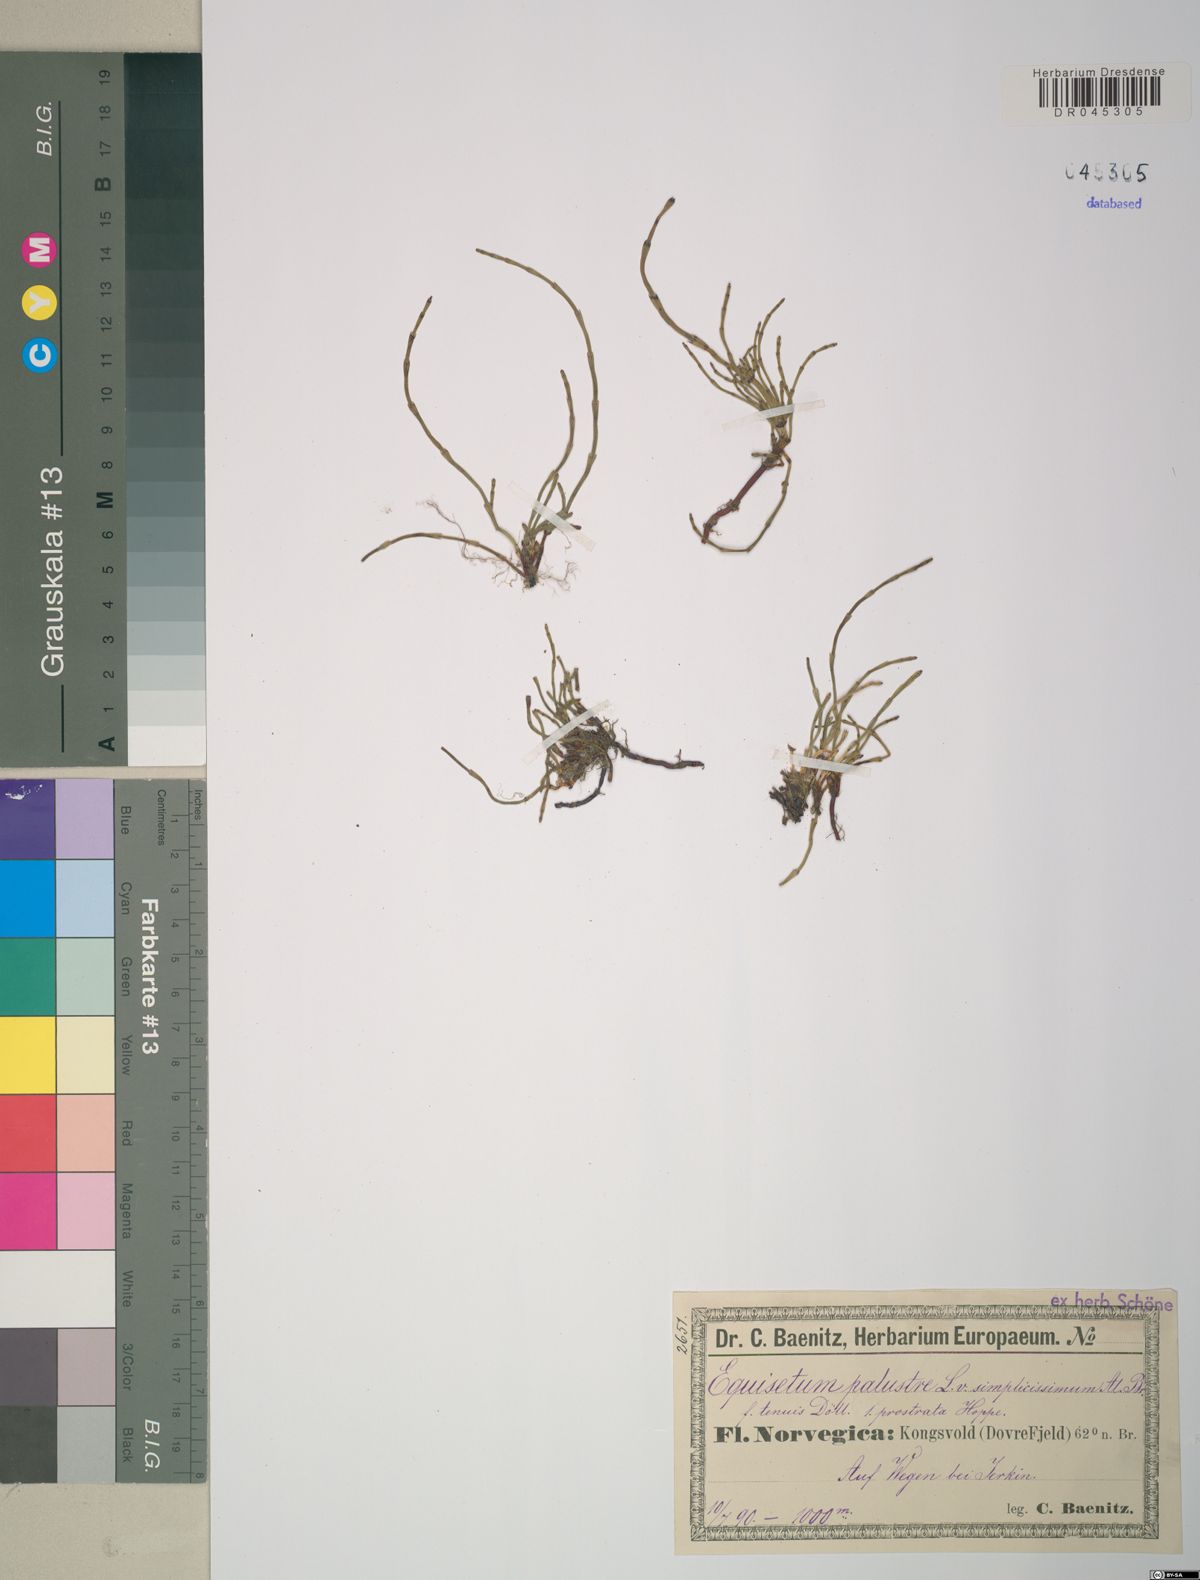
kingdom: Plantae
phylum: Tracheophyta
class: Polypodiopsida
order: Equisetales
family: Equisetaceae
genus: Equisetum
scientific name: Equisetum palustre
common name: Marsh horsetail
